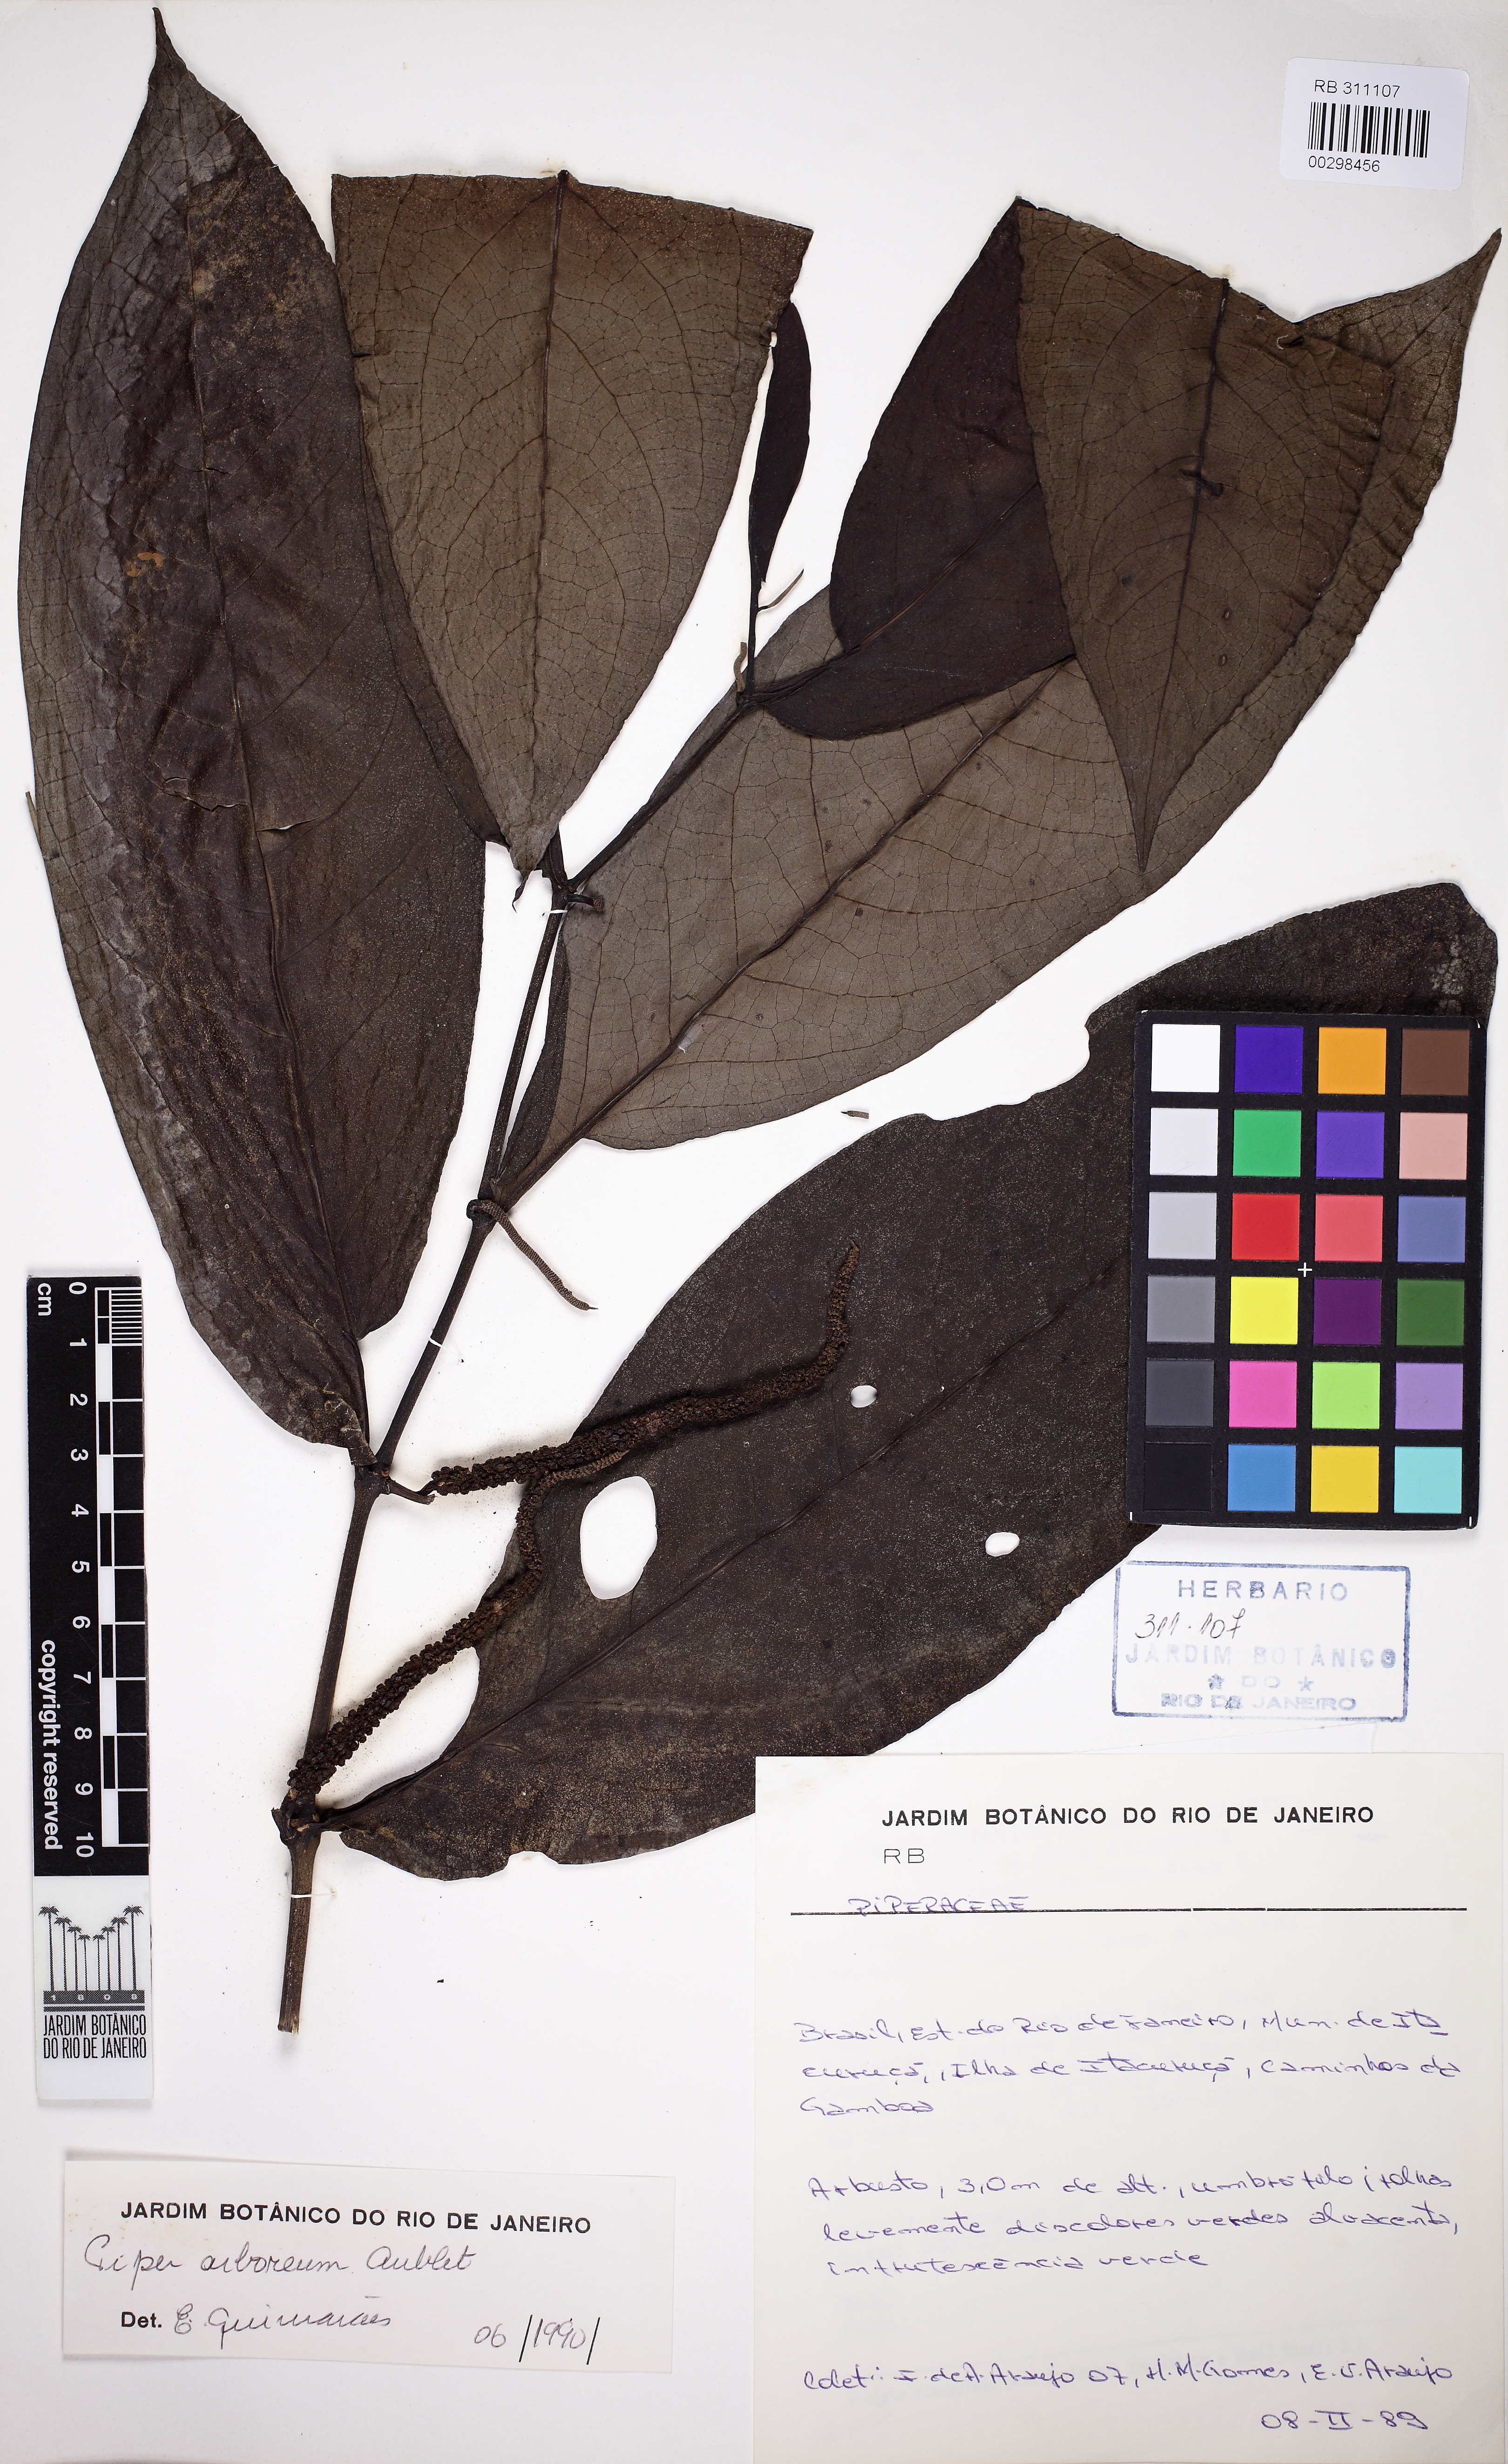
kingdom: Plantae
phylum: Tracheophyta
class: Magnoliopsida
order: Piperales
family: Piperaceae
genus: Piper
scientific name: Piper arboreum
